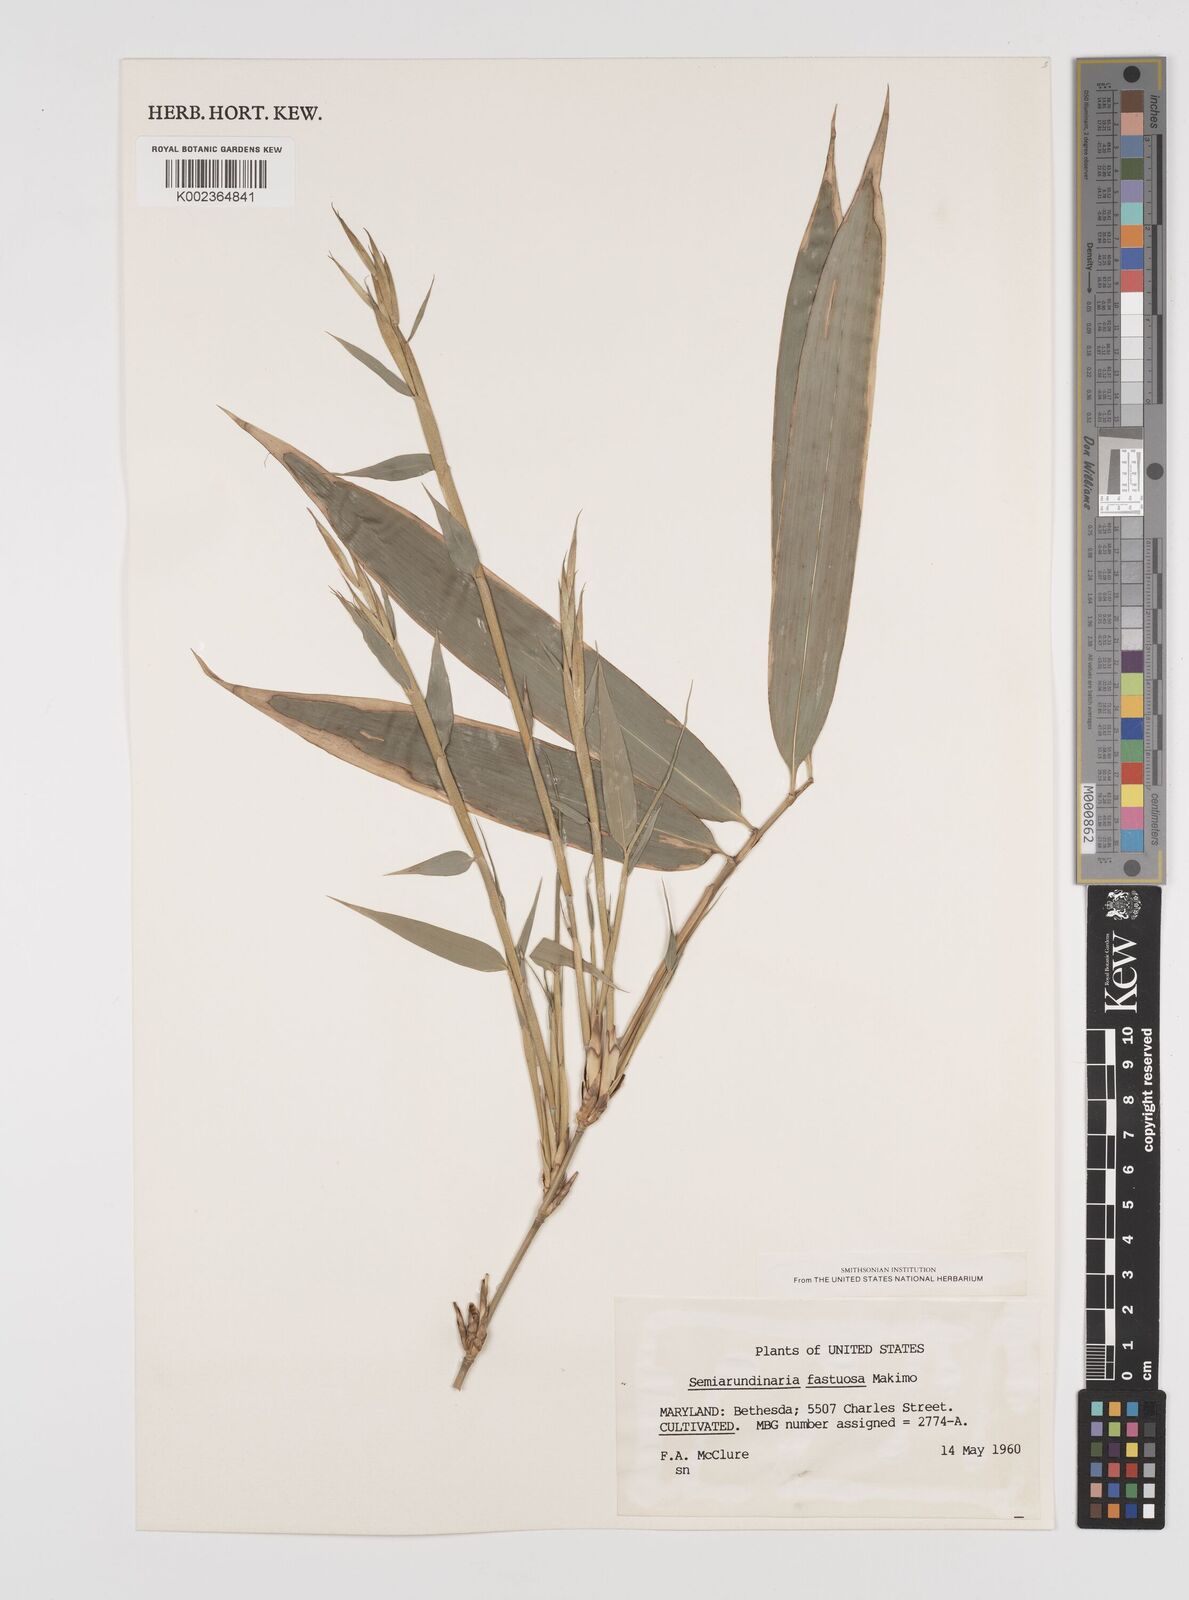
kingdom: Plantae
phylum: Tracheophyta
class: Liliopsida
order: Poales
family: Poaceae
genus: Semiarundinaria
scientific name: Semiarundinaria
